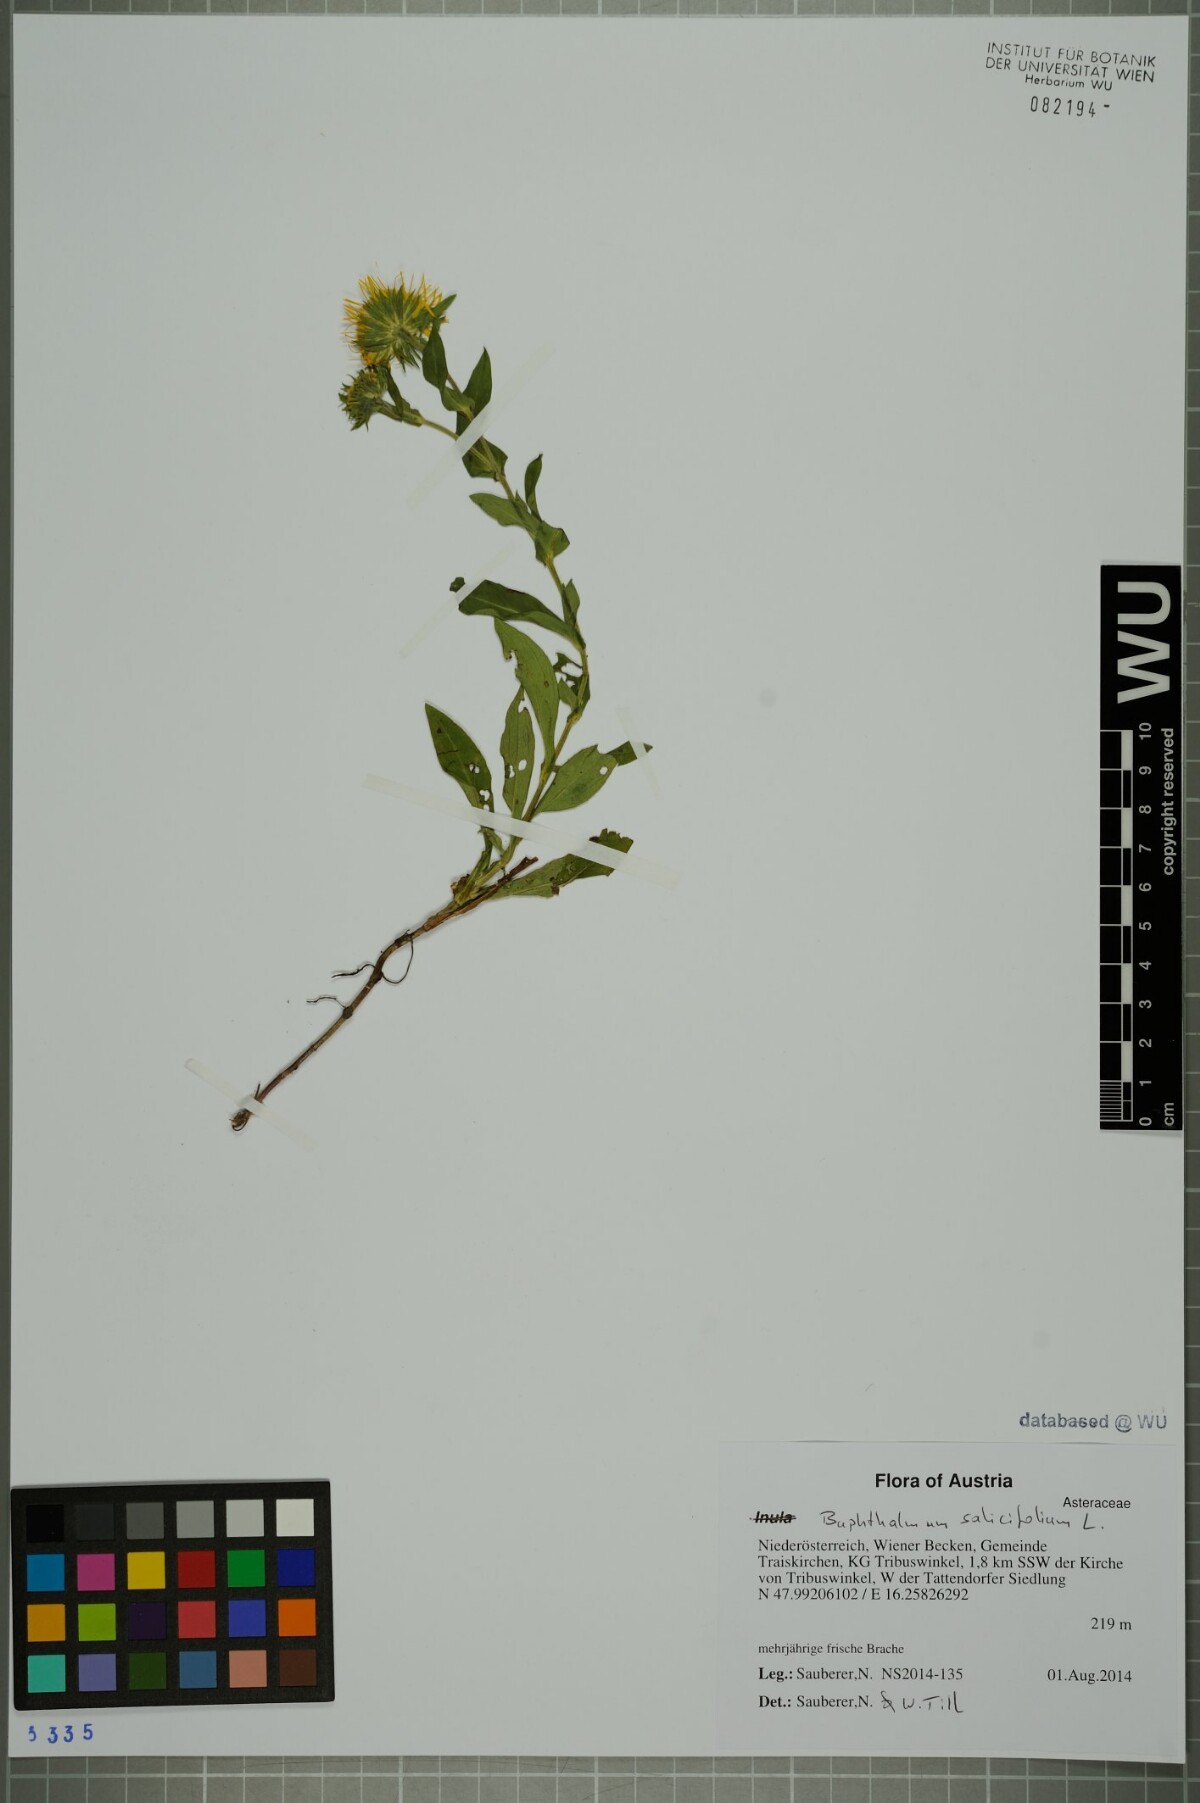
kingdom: Plantae
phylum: Tracheophyta
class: Magnoliopsida
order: Asterales
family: Asteraceae
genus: Pentanema
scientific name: Pentanema britannicum
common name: British elecampane
